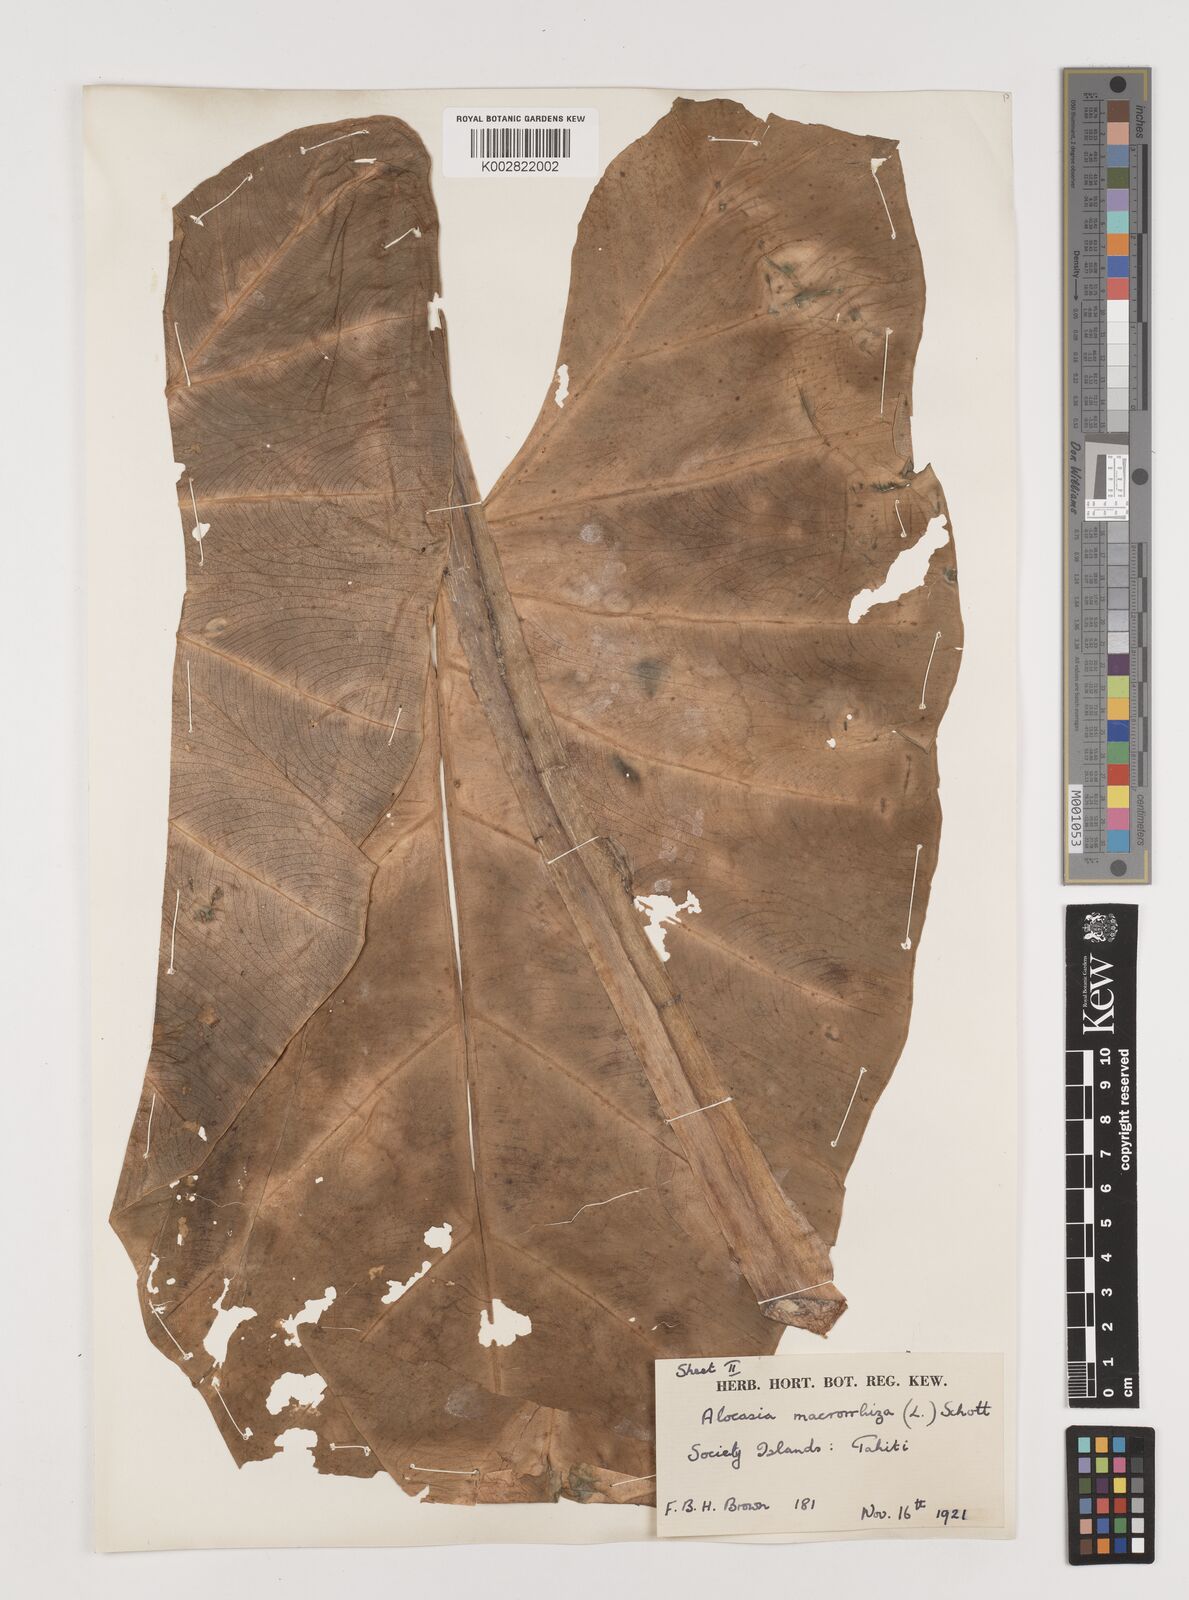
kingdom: Plantae
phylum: Tracheophyta
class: Liliopsida
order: Alismatales
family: Araceae
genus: Alocasia
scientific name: Alocasia macrorrhizos
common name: Giant taro
